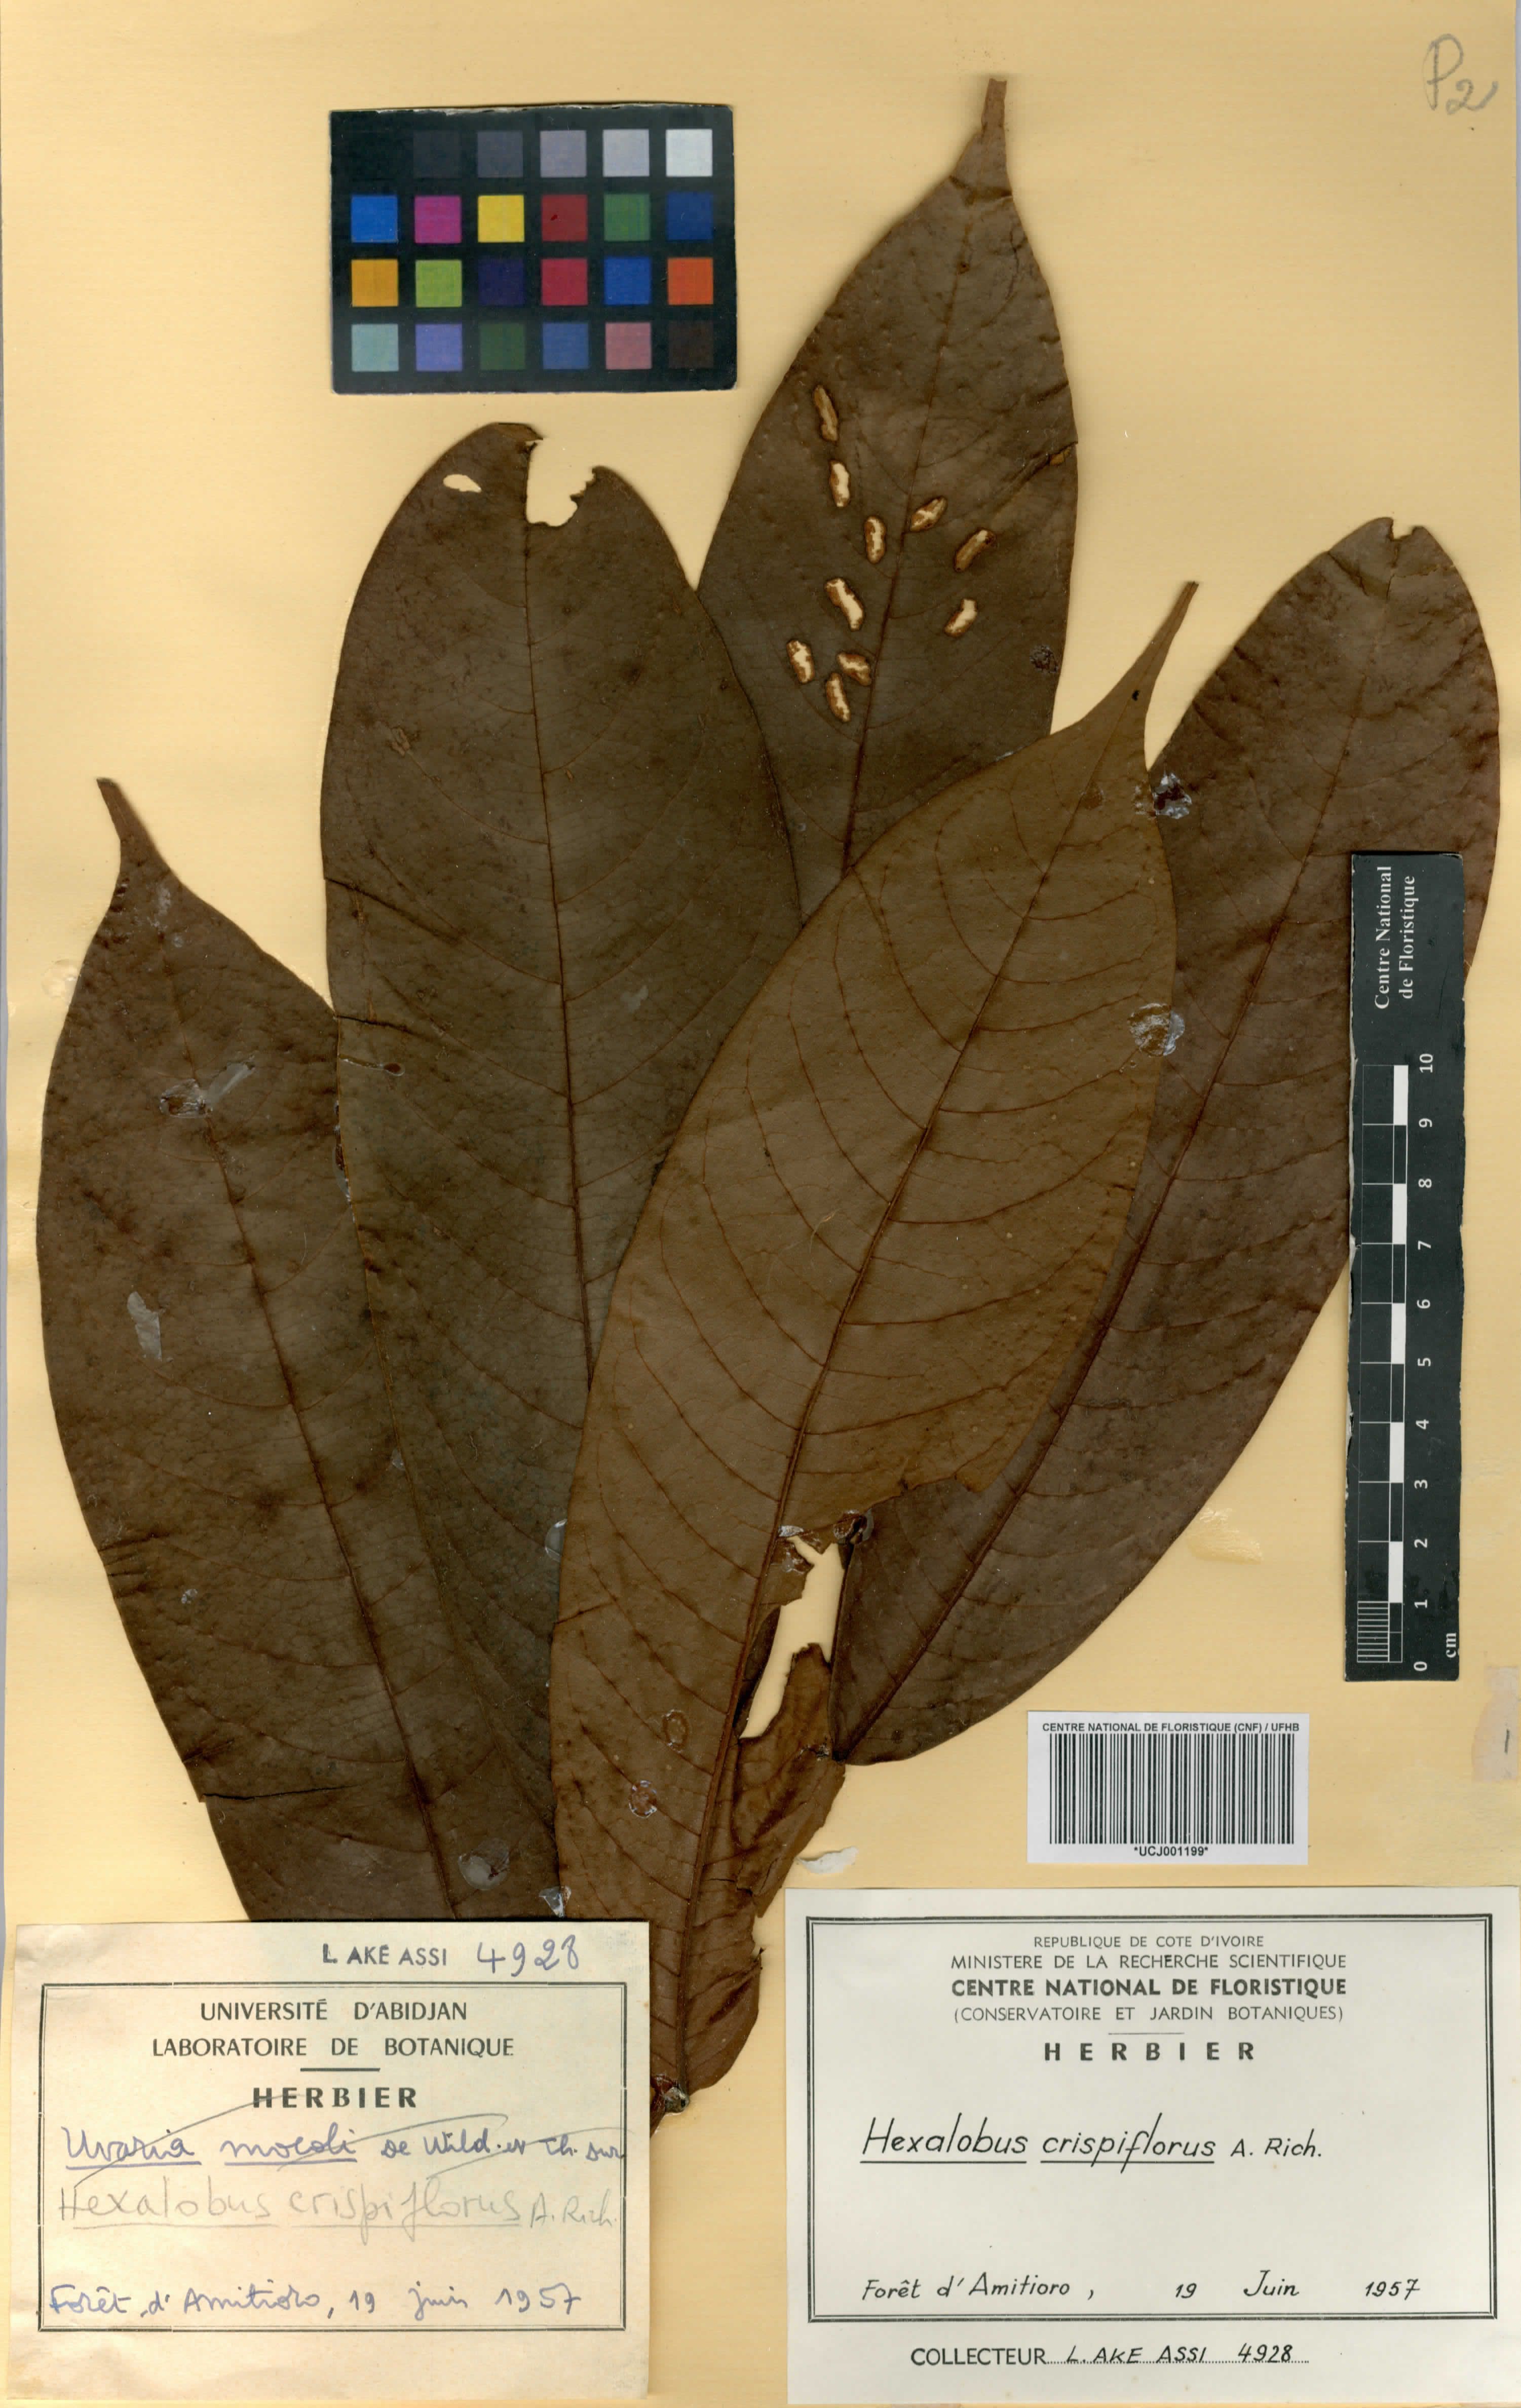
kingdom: Plantae
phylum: Tracheophyta
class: Magnoliopsida
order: Magnoliales
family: Annonaceae
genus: Hexalobus
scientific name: Hexalobus crispiflorus
